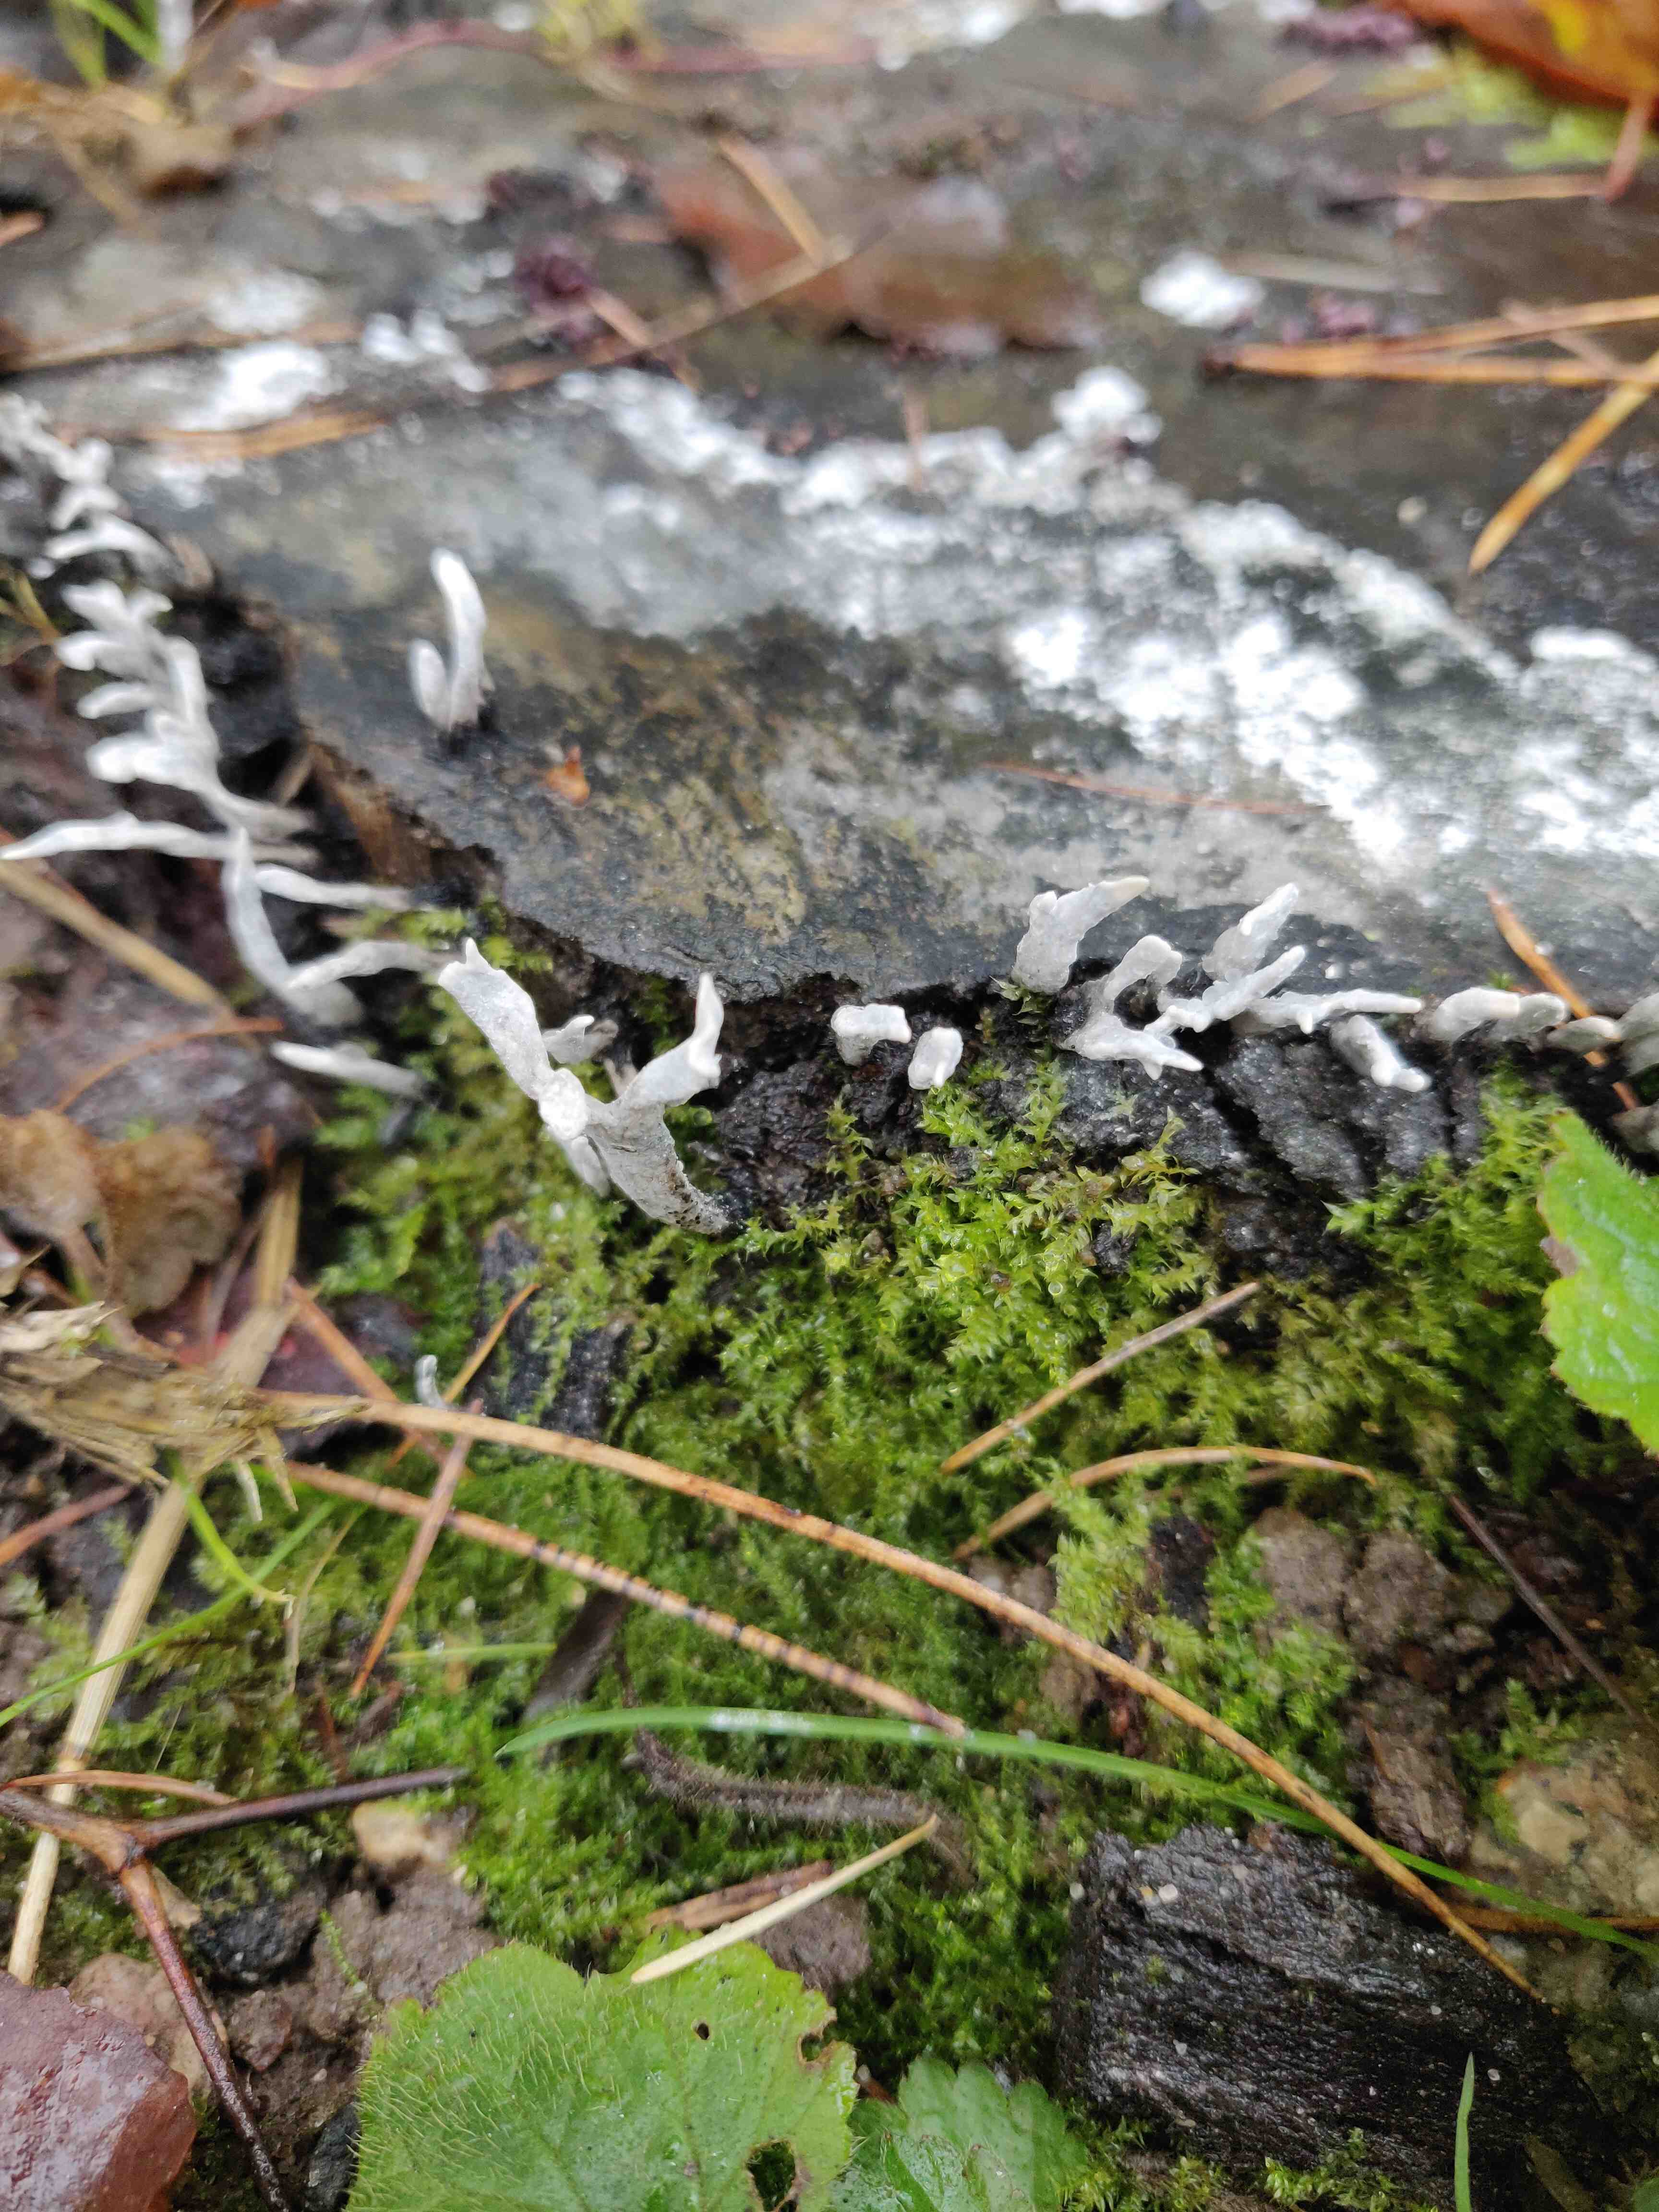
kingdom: Fungi
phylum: Ascomycota
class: Sordariomycetes
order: Xylariales
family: Xylariaceae
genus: Xylaria
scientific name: Xylaria hypoxylon
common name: grenet stødsvamp
